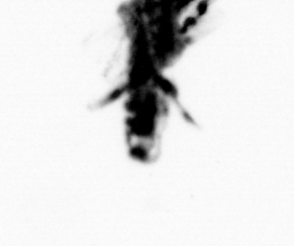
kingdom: Animalia
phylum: Annelida
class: Polychaeta
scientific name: Polychaeta
